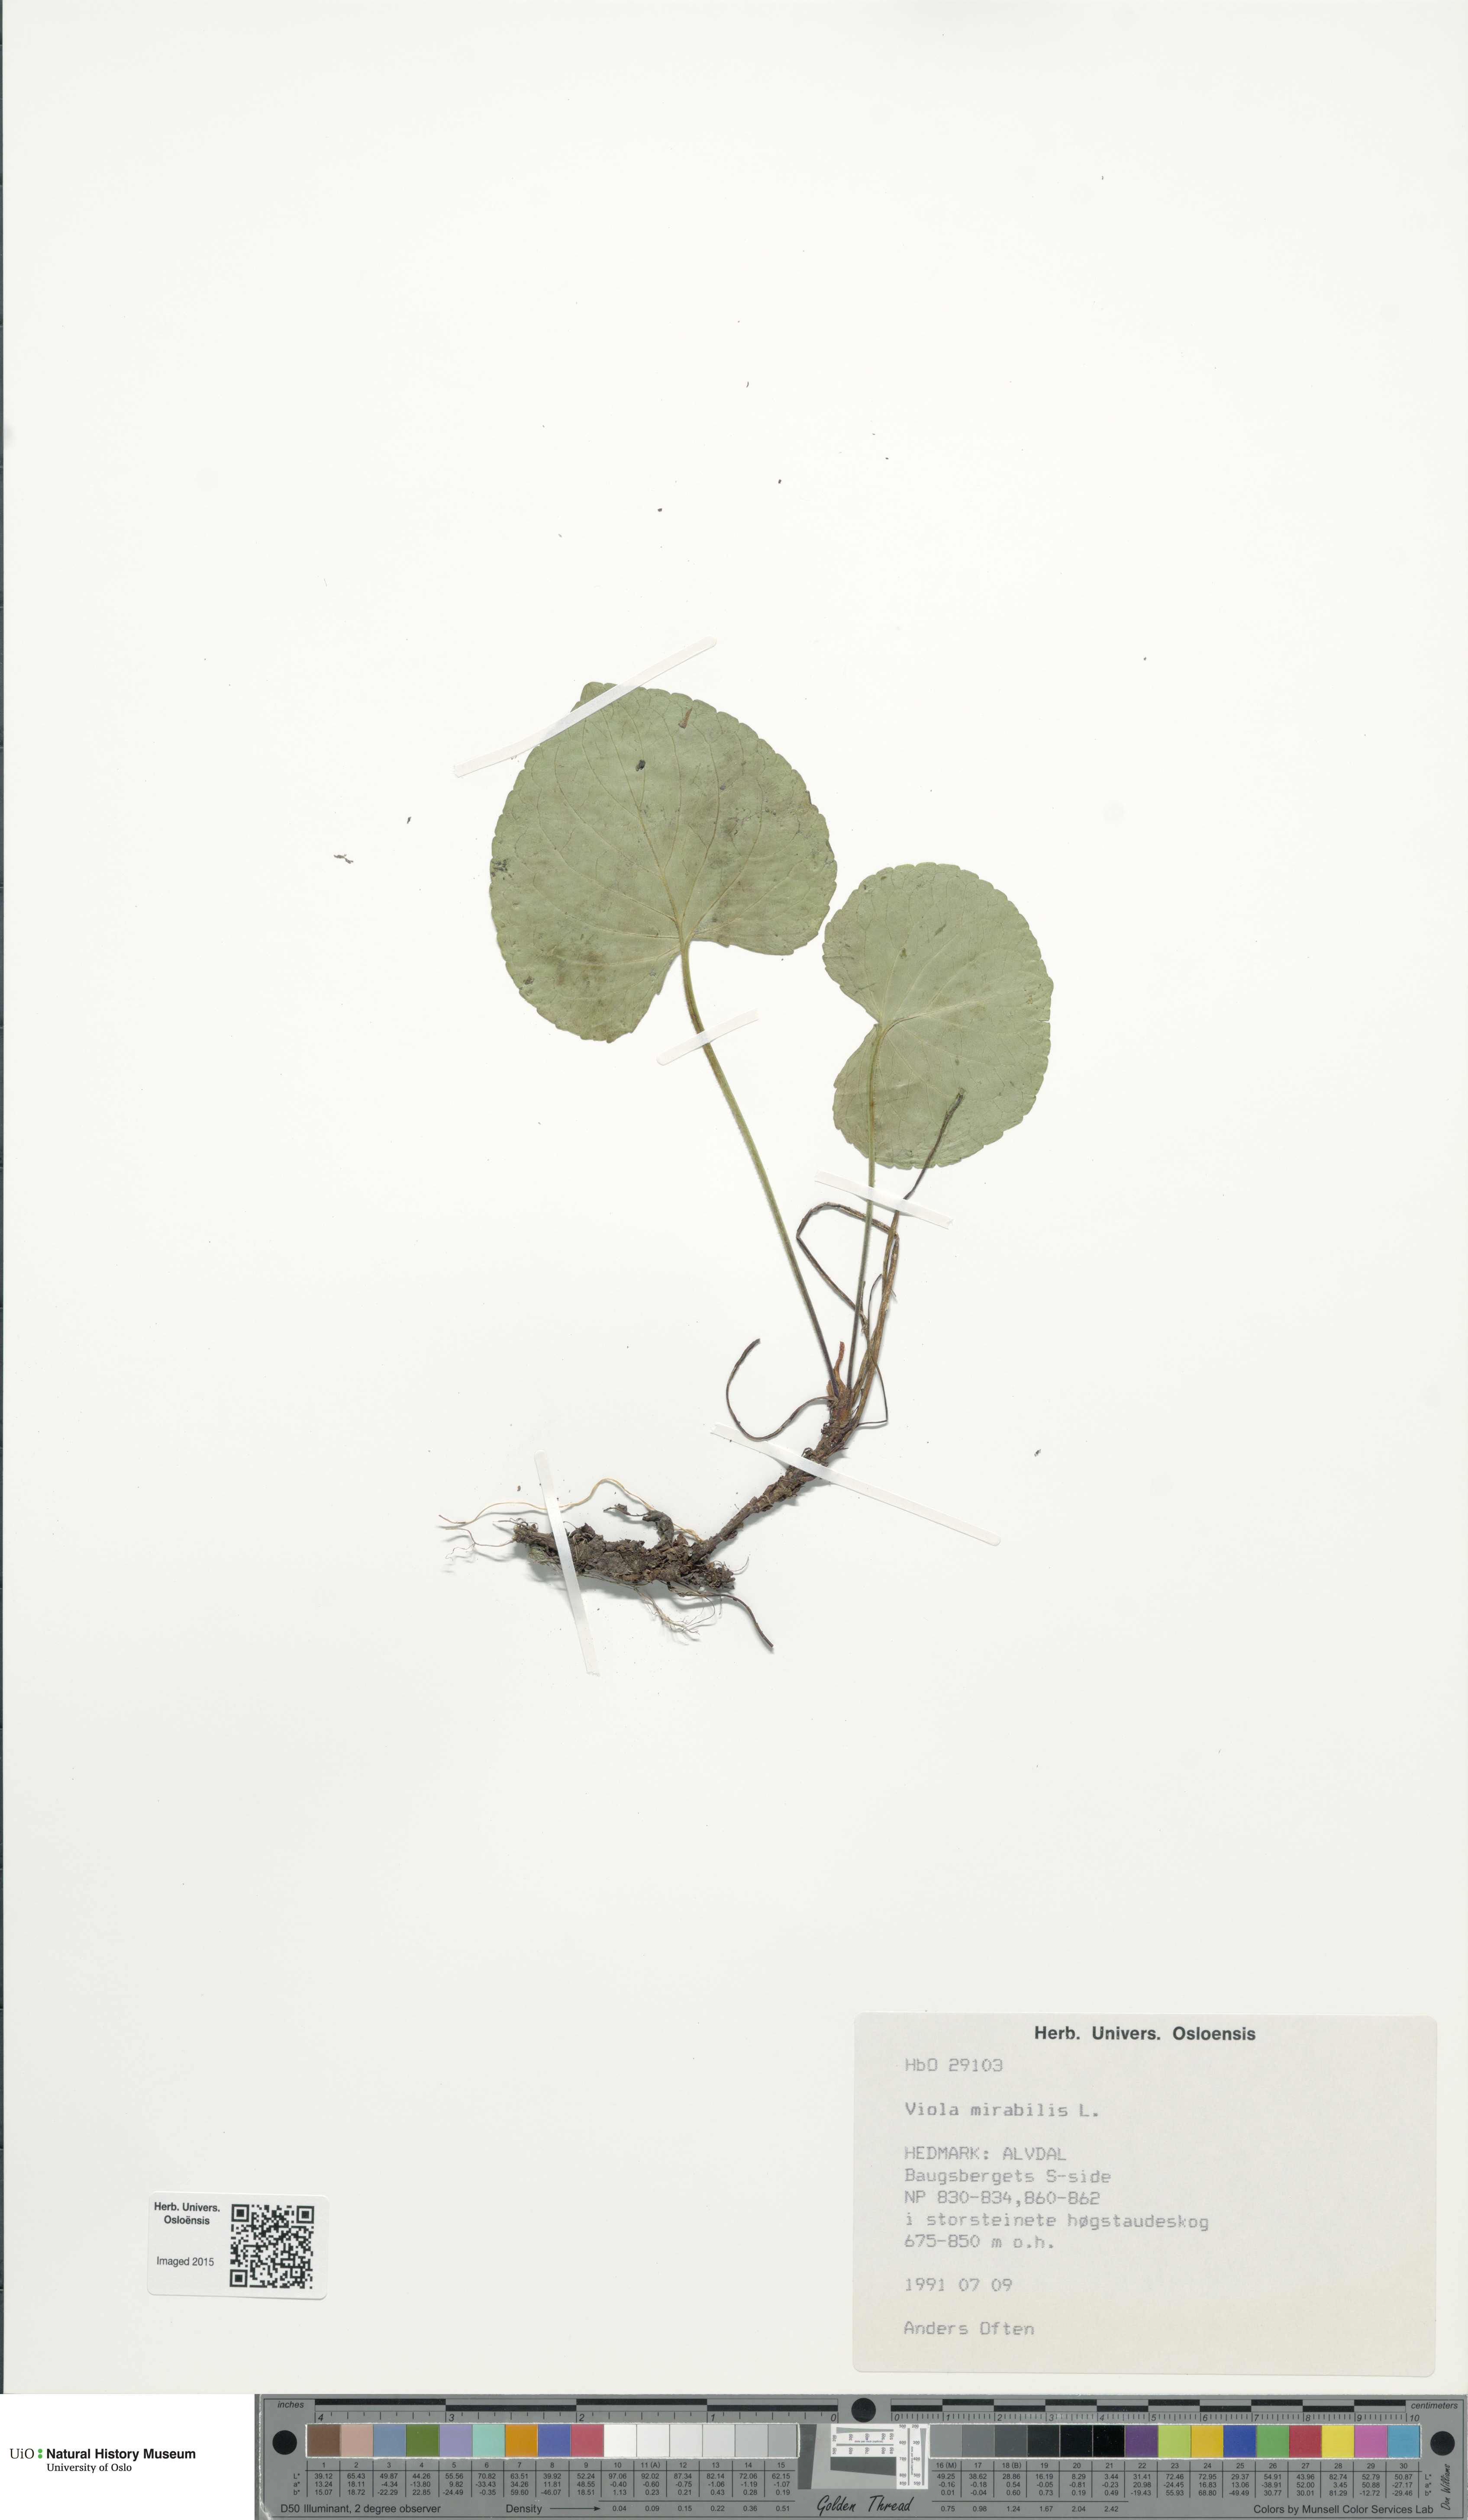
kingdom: Plantae
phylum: Tracheophyta
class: Magnoliopsida
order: Malpighiales
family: Violaceae
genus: Viola
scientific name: Viola mirabilis
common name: Wonder violet
